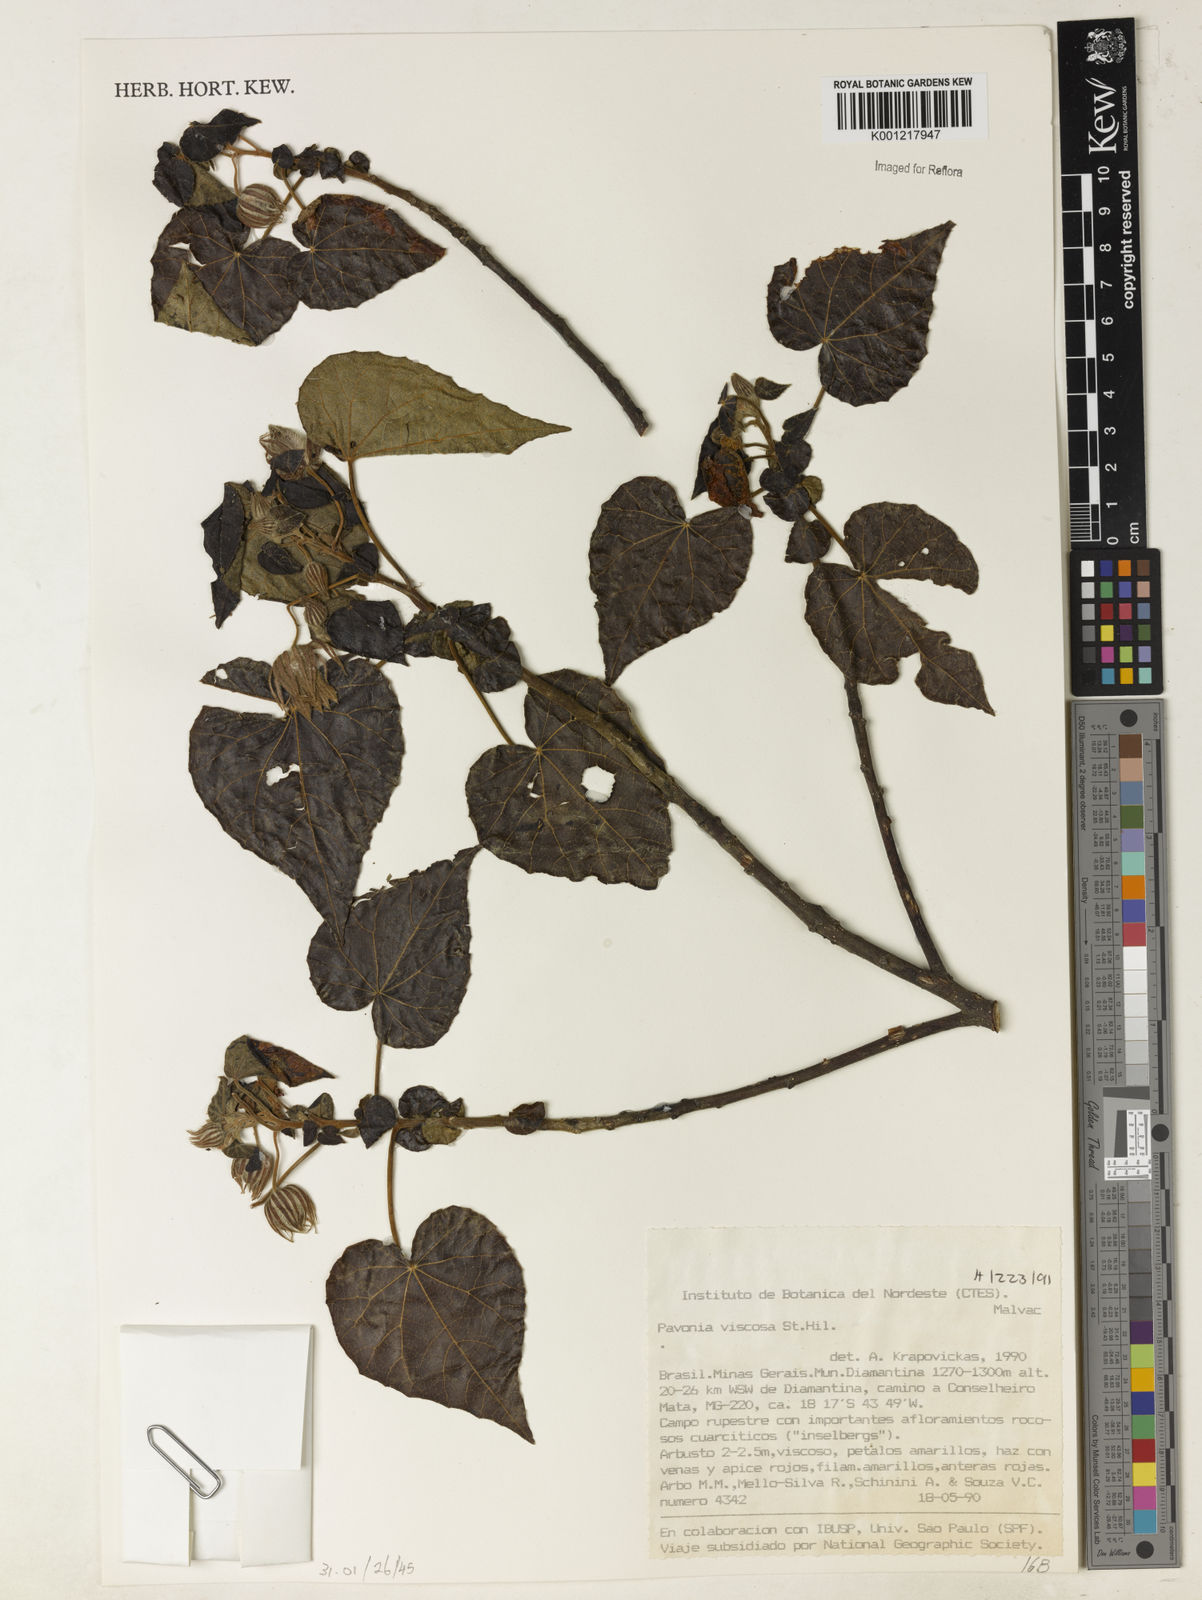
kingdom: Plantae
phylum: Tracheophyta
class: Magnoliopsida
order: Malvales
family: Malvaceae
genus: Pavonia
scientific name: Pavonia viscosa
